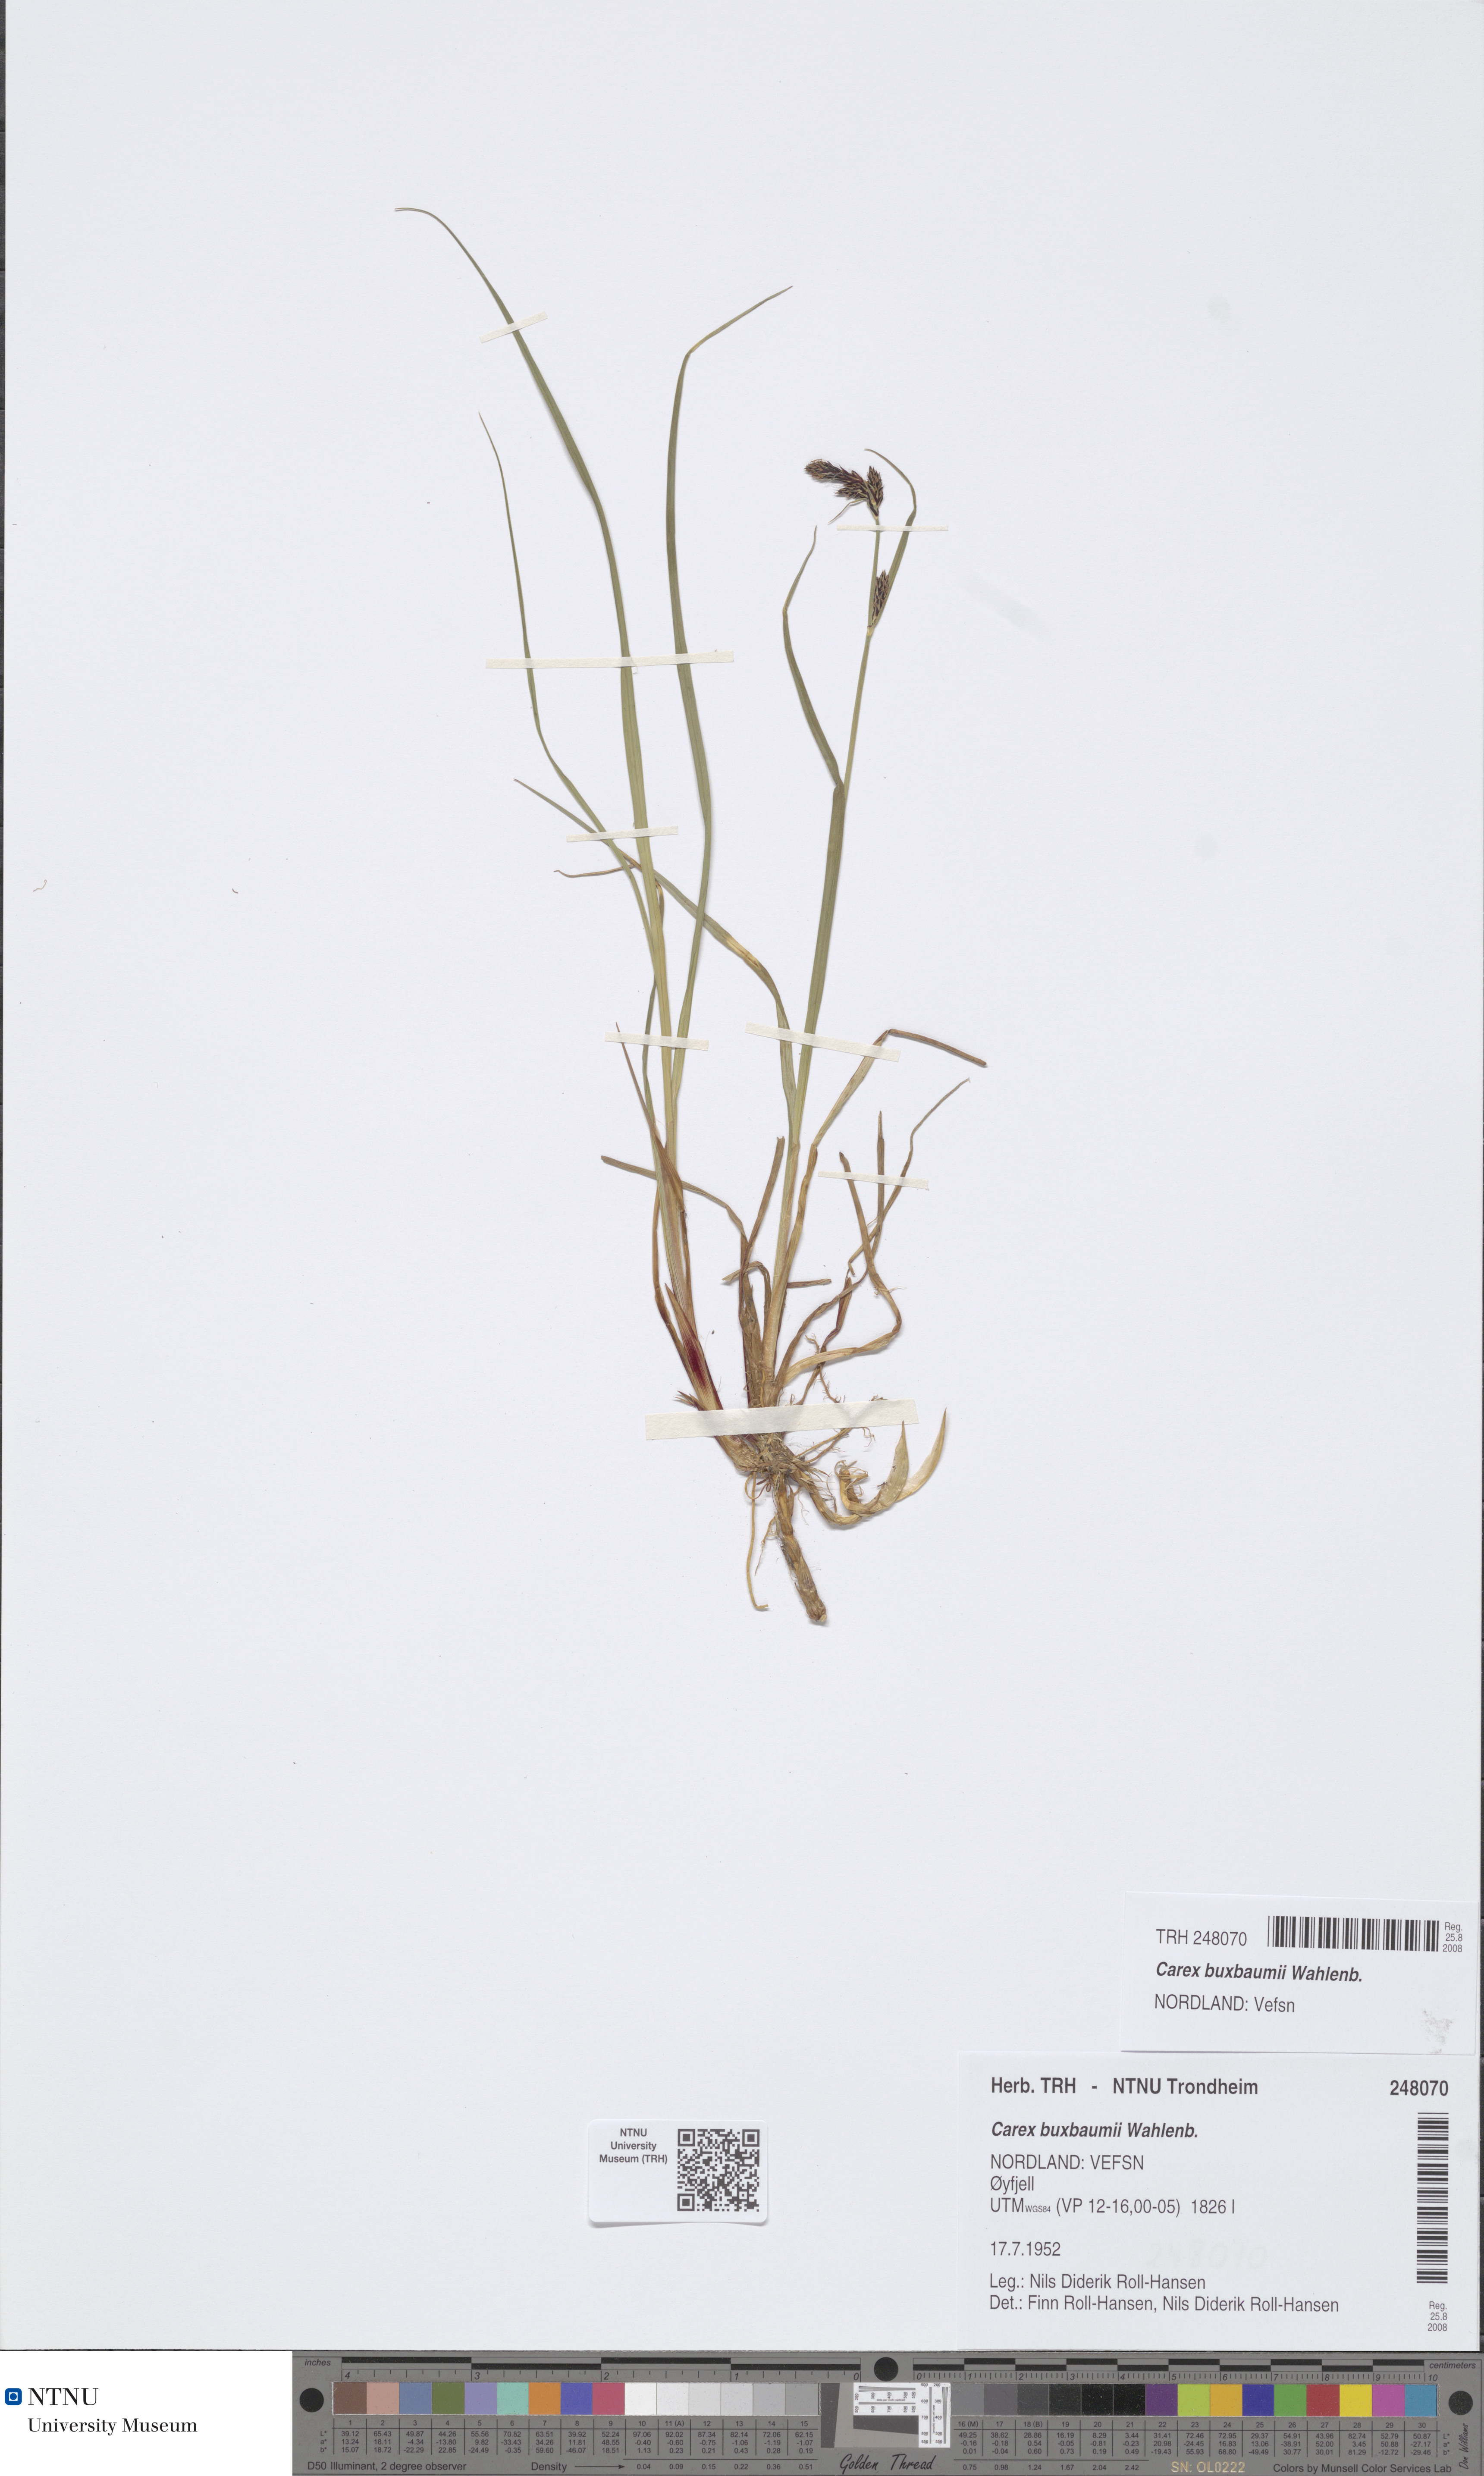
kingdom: Plantae
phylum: Tracheophyta
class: Liliopsida
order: Poales
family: Cyperaceae
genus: Carex
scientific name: Carex buxbaumii
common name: Club sedge
